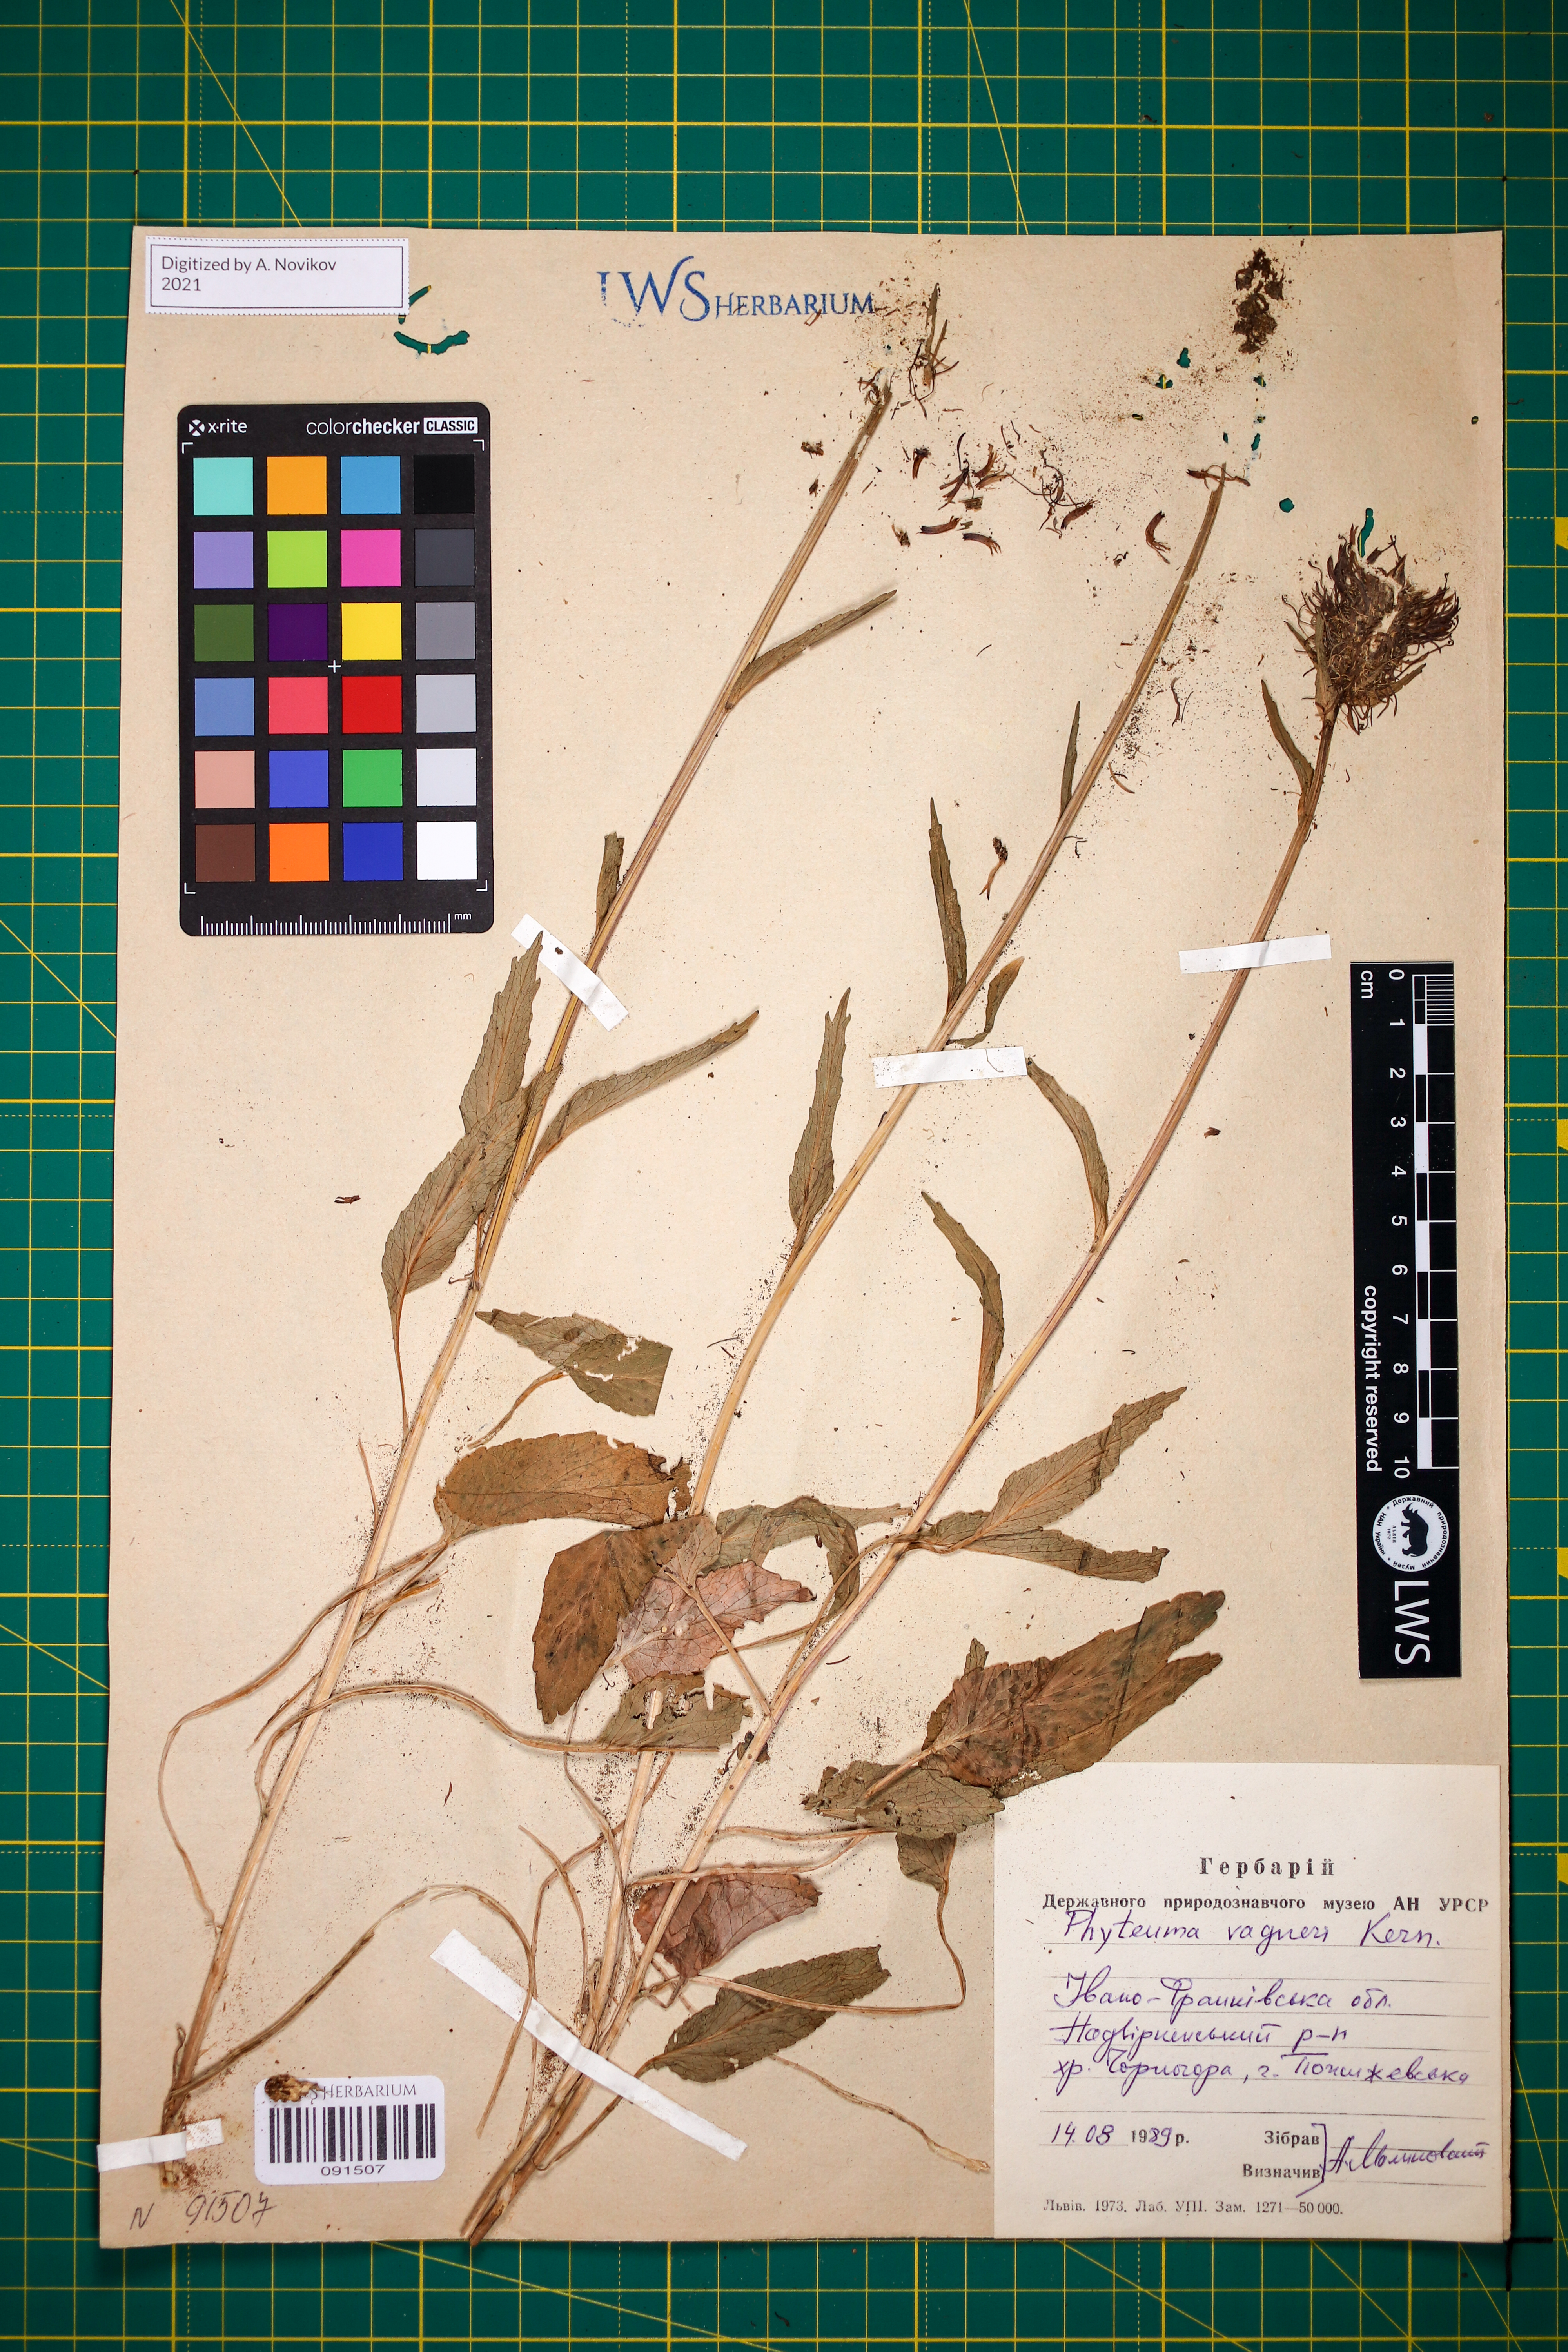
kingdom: Plantae
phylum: Tracheophyta
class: Magnoliopsida
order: Asterales
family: Campanulaceae
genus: Phyteuma
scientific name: Phyteuma vagneri
